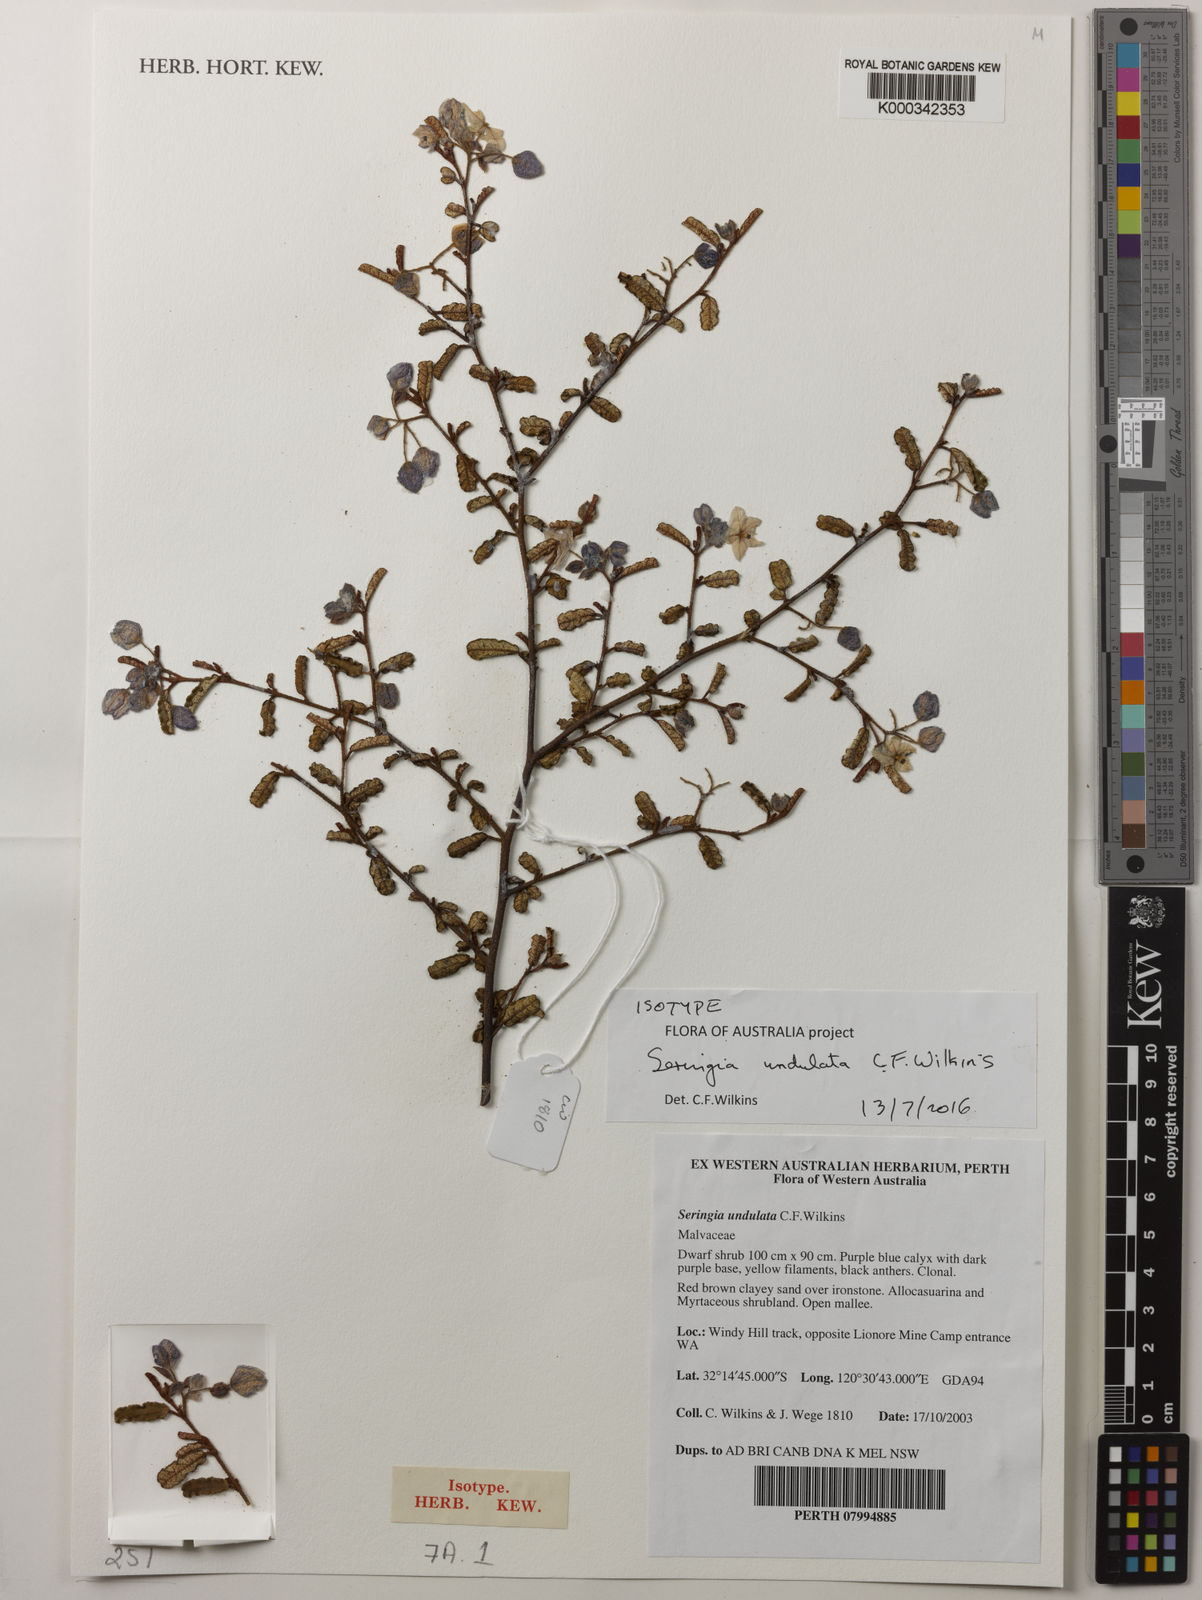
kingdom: Plantae
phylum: Tracheophyta
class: Magnoliopsida
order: Malvales
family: Malvaceae
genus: Seringia
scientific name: Seringia undulata
